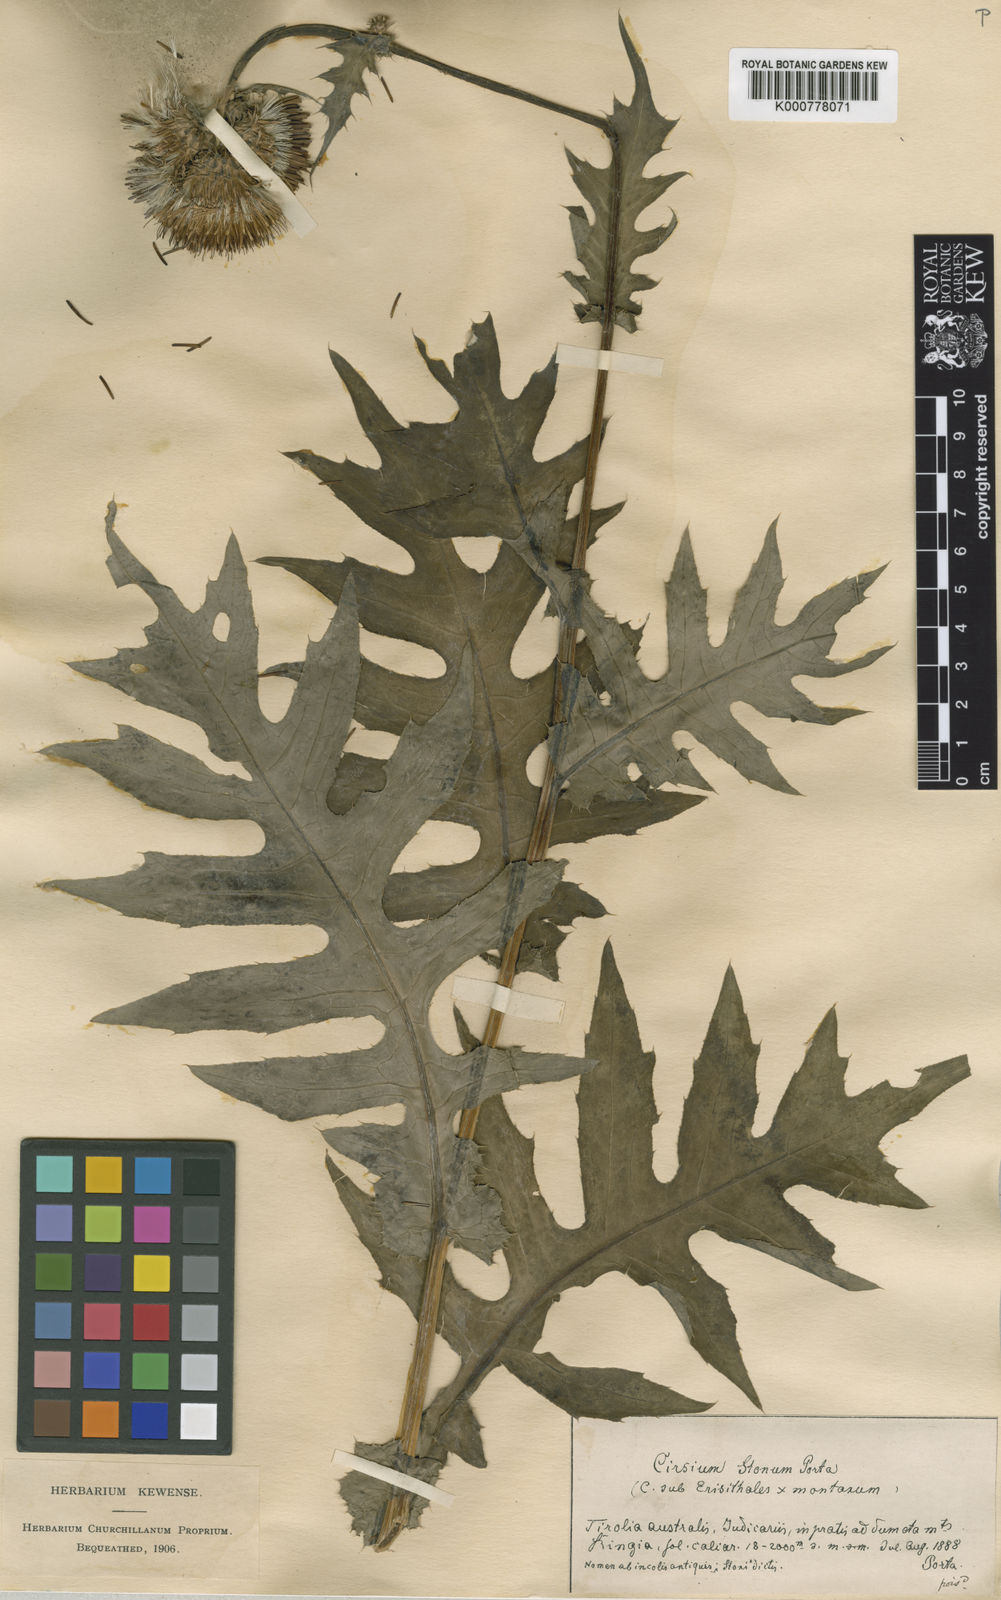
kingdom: Plantae
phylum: Tracheophyta
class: Magnoliopsida
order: Asterales
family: Asteraceae
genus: Cirsium
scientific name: Cirsium erisithales
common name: Yellow thistle
